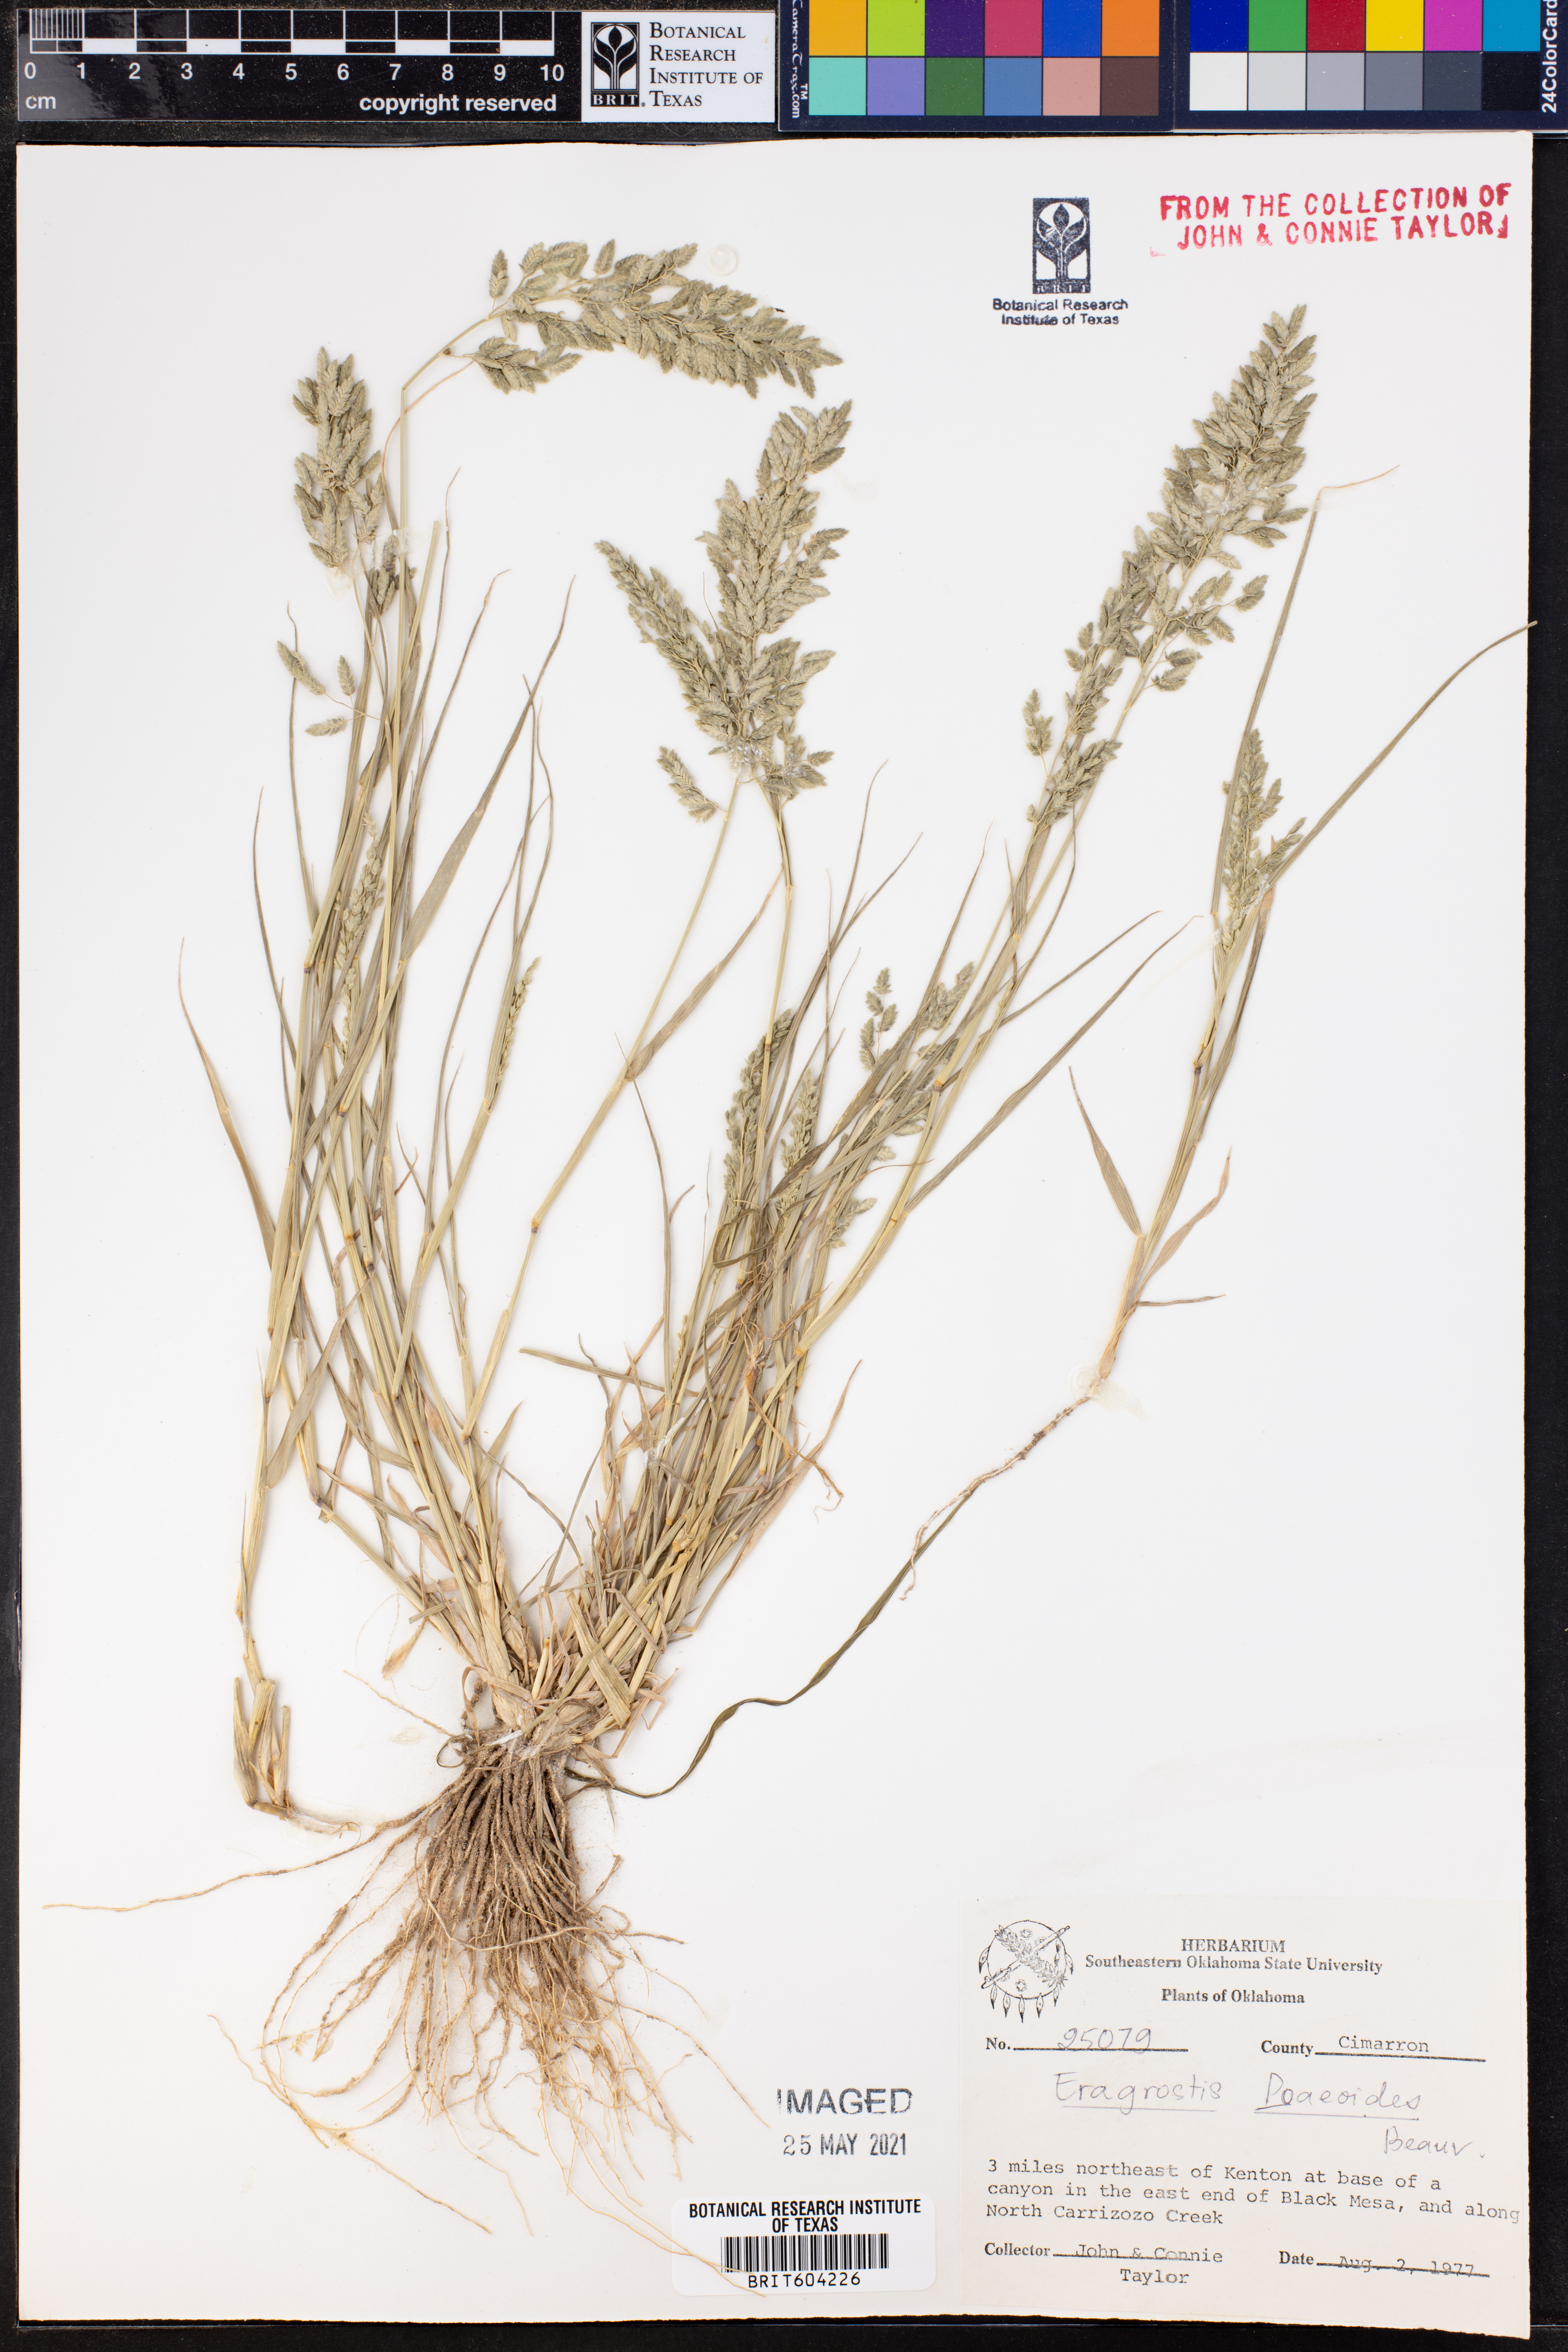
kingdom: Plantae
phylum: Tracheophyta
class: Liliopsida
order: Poales
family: Poaceae
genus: Eragrostis
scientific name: Eragrostis minor
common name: Small love-grass
